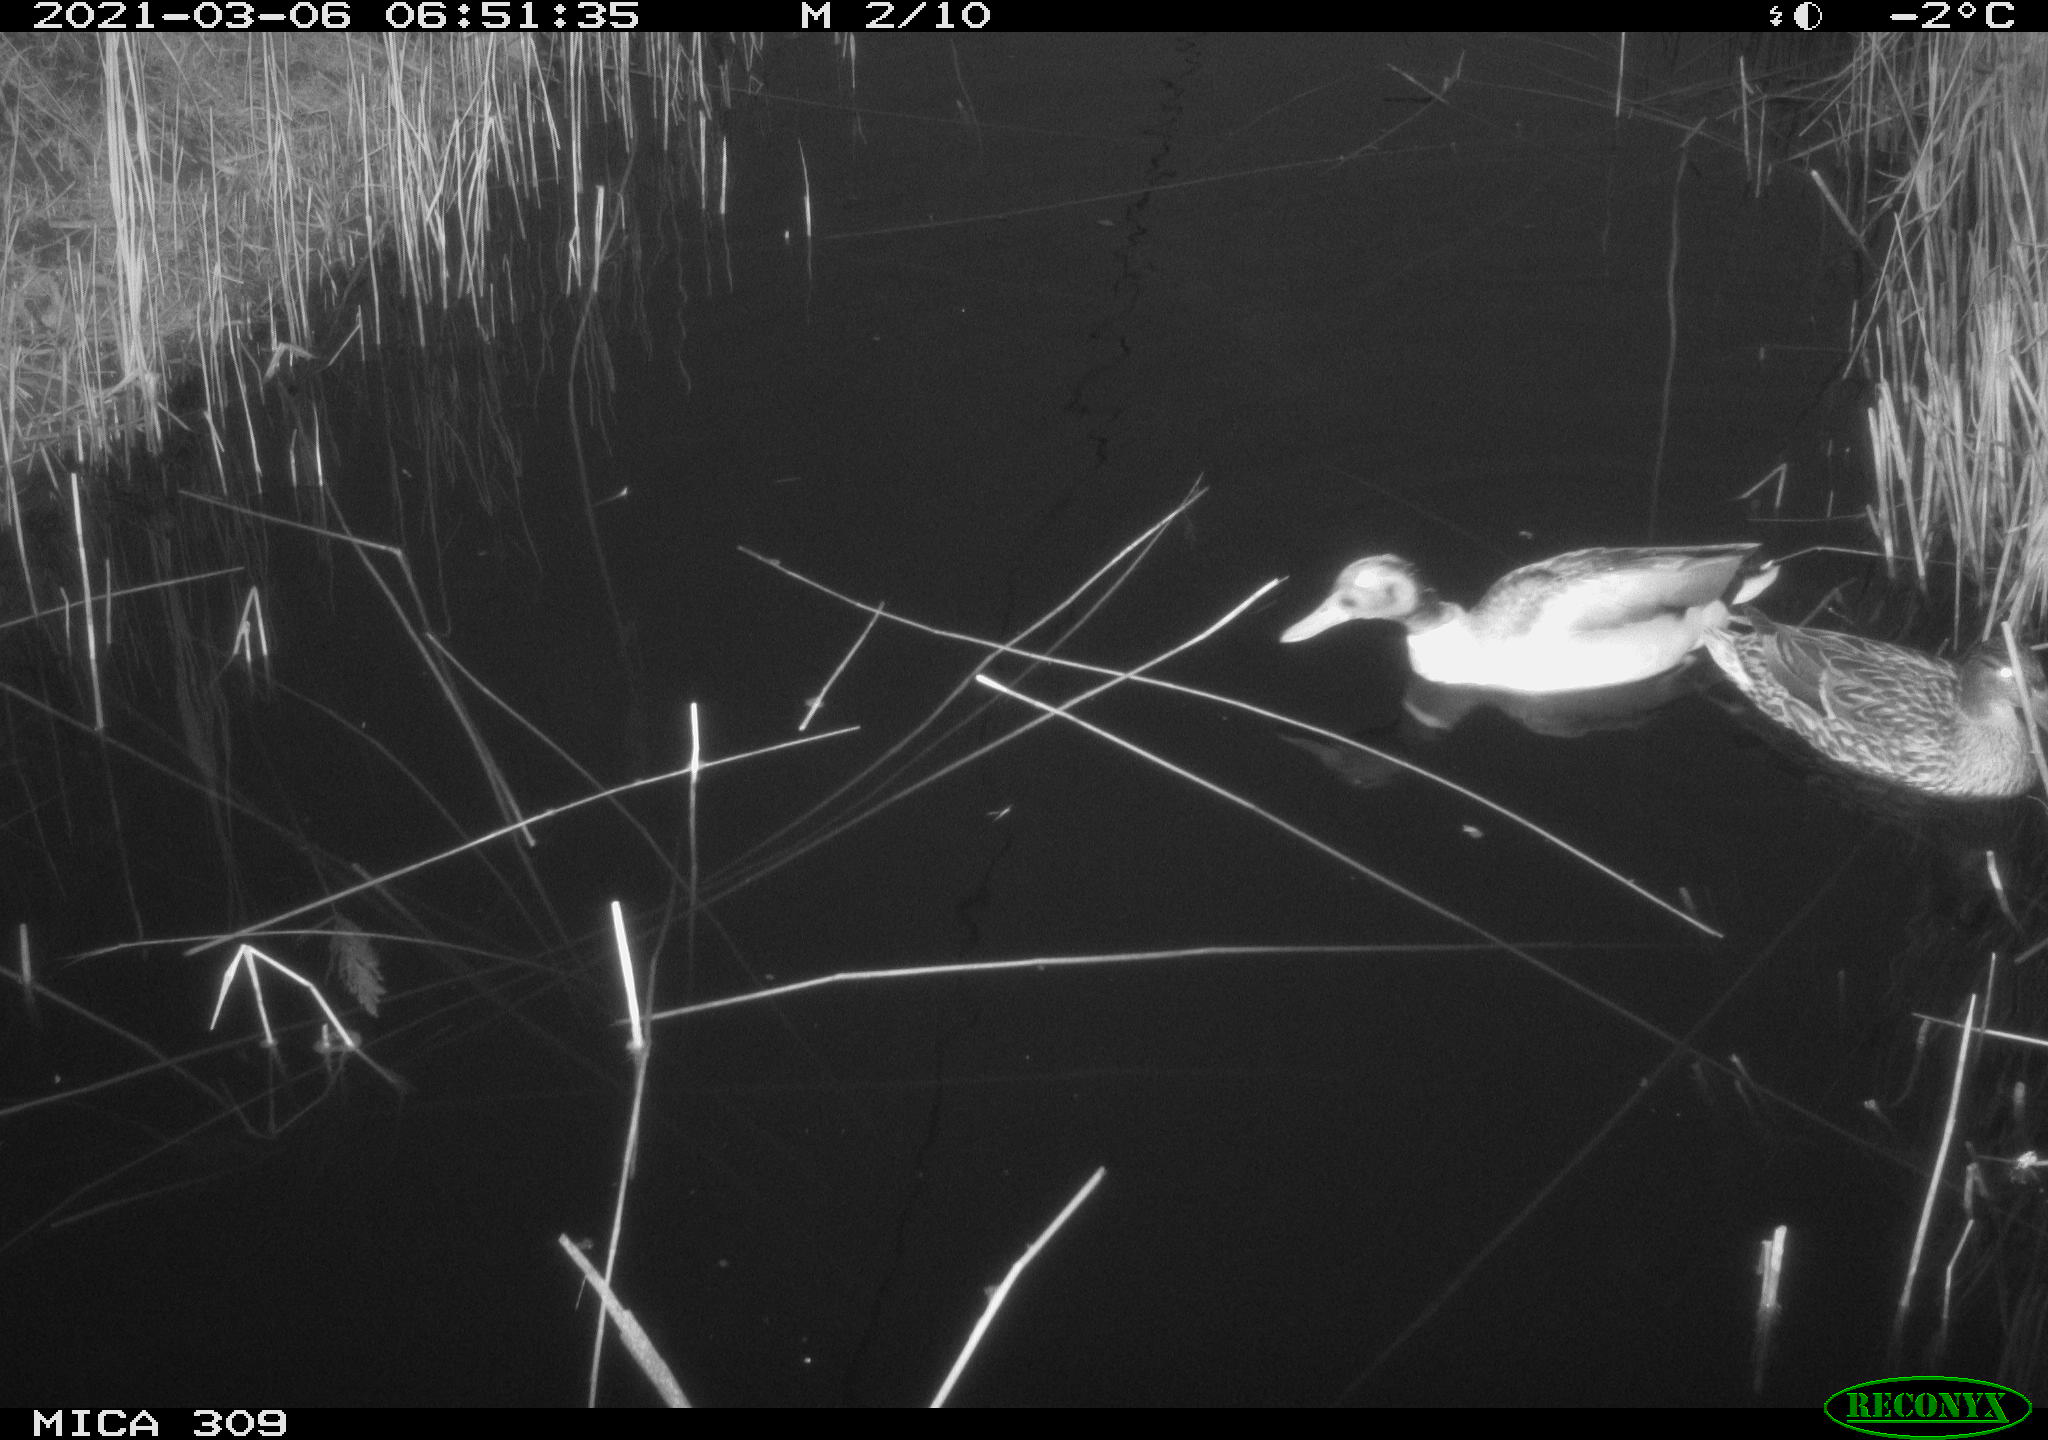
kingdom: Animalia
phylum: Chordata
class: Aves
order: Anseriformes
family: Anatidae
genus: Anas
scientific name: Anas platyrhynchos
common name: Mallard
